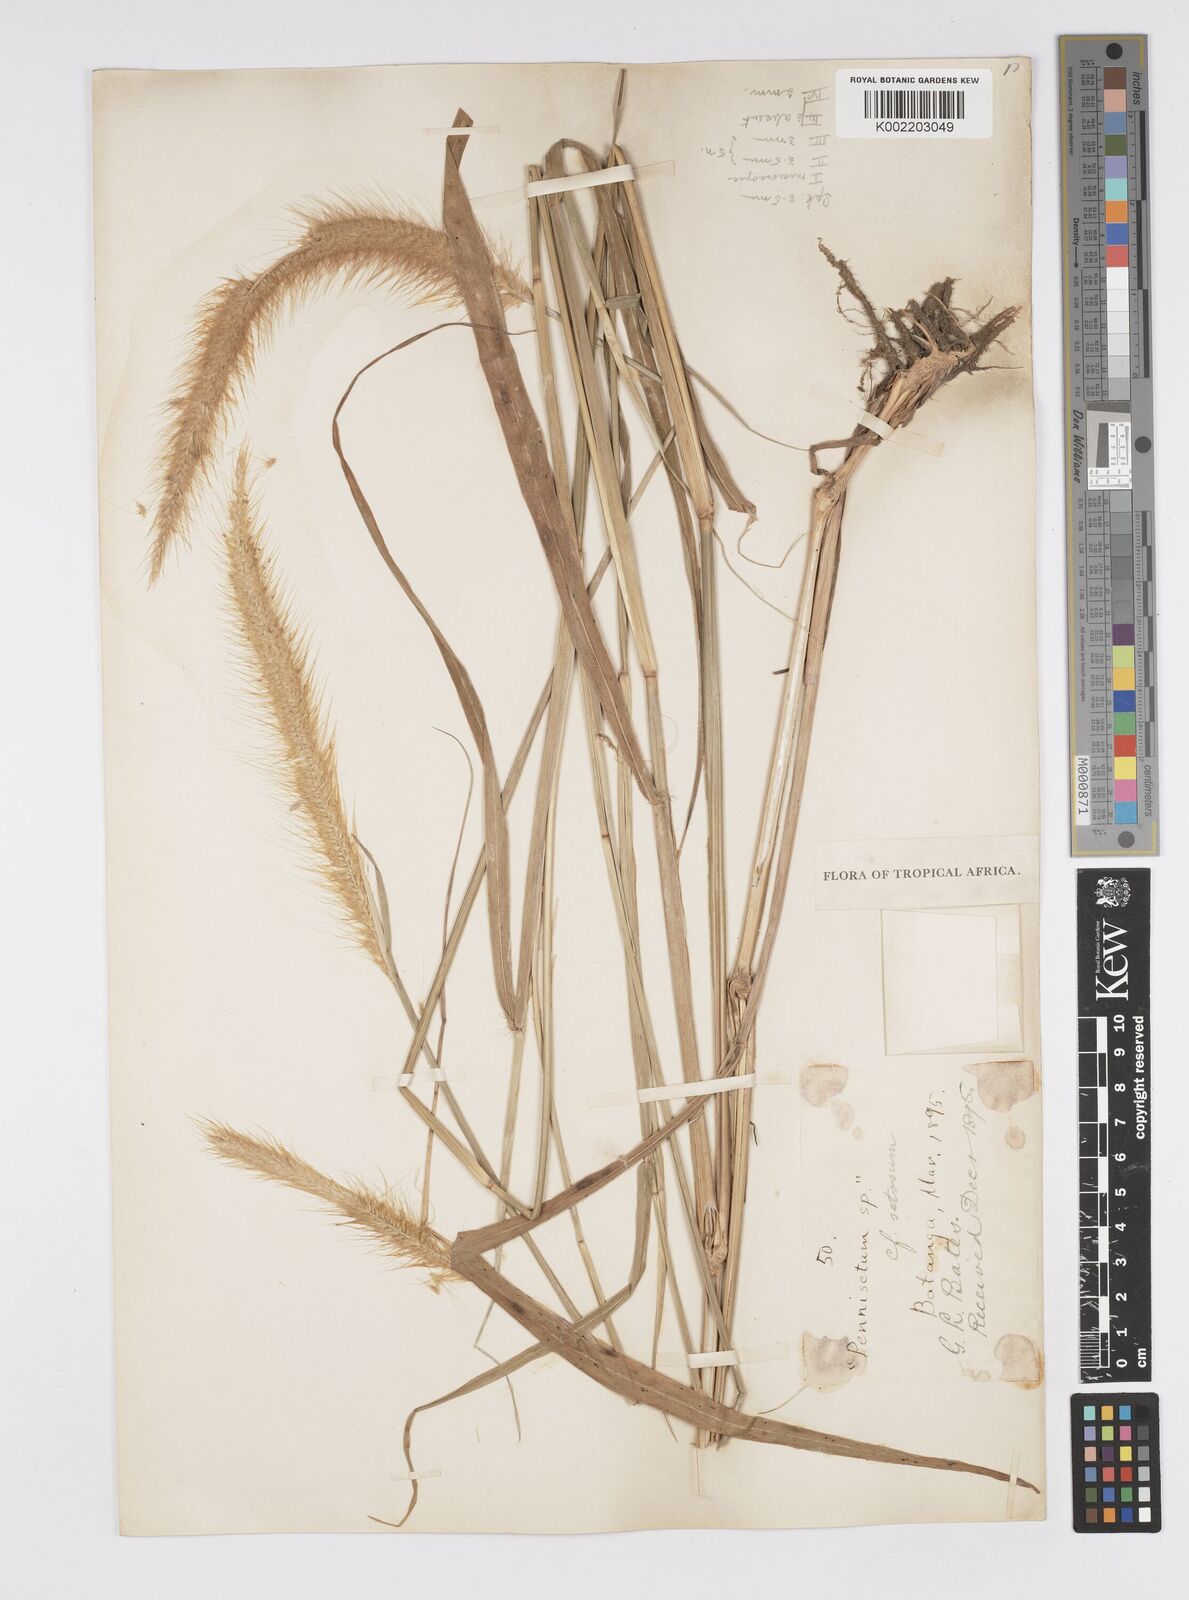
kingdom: Plantae
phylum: Tracheophyta
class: Liliopsida
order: Poales
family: Poaceae
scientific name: Poaceae
